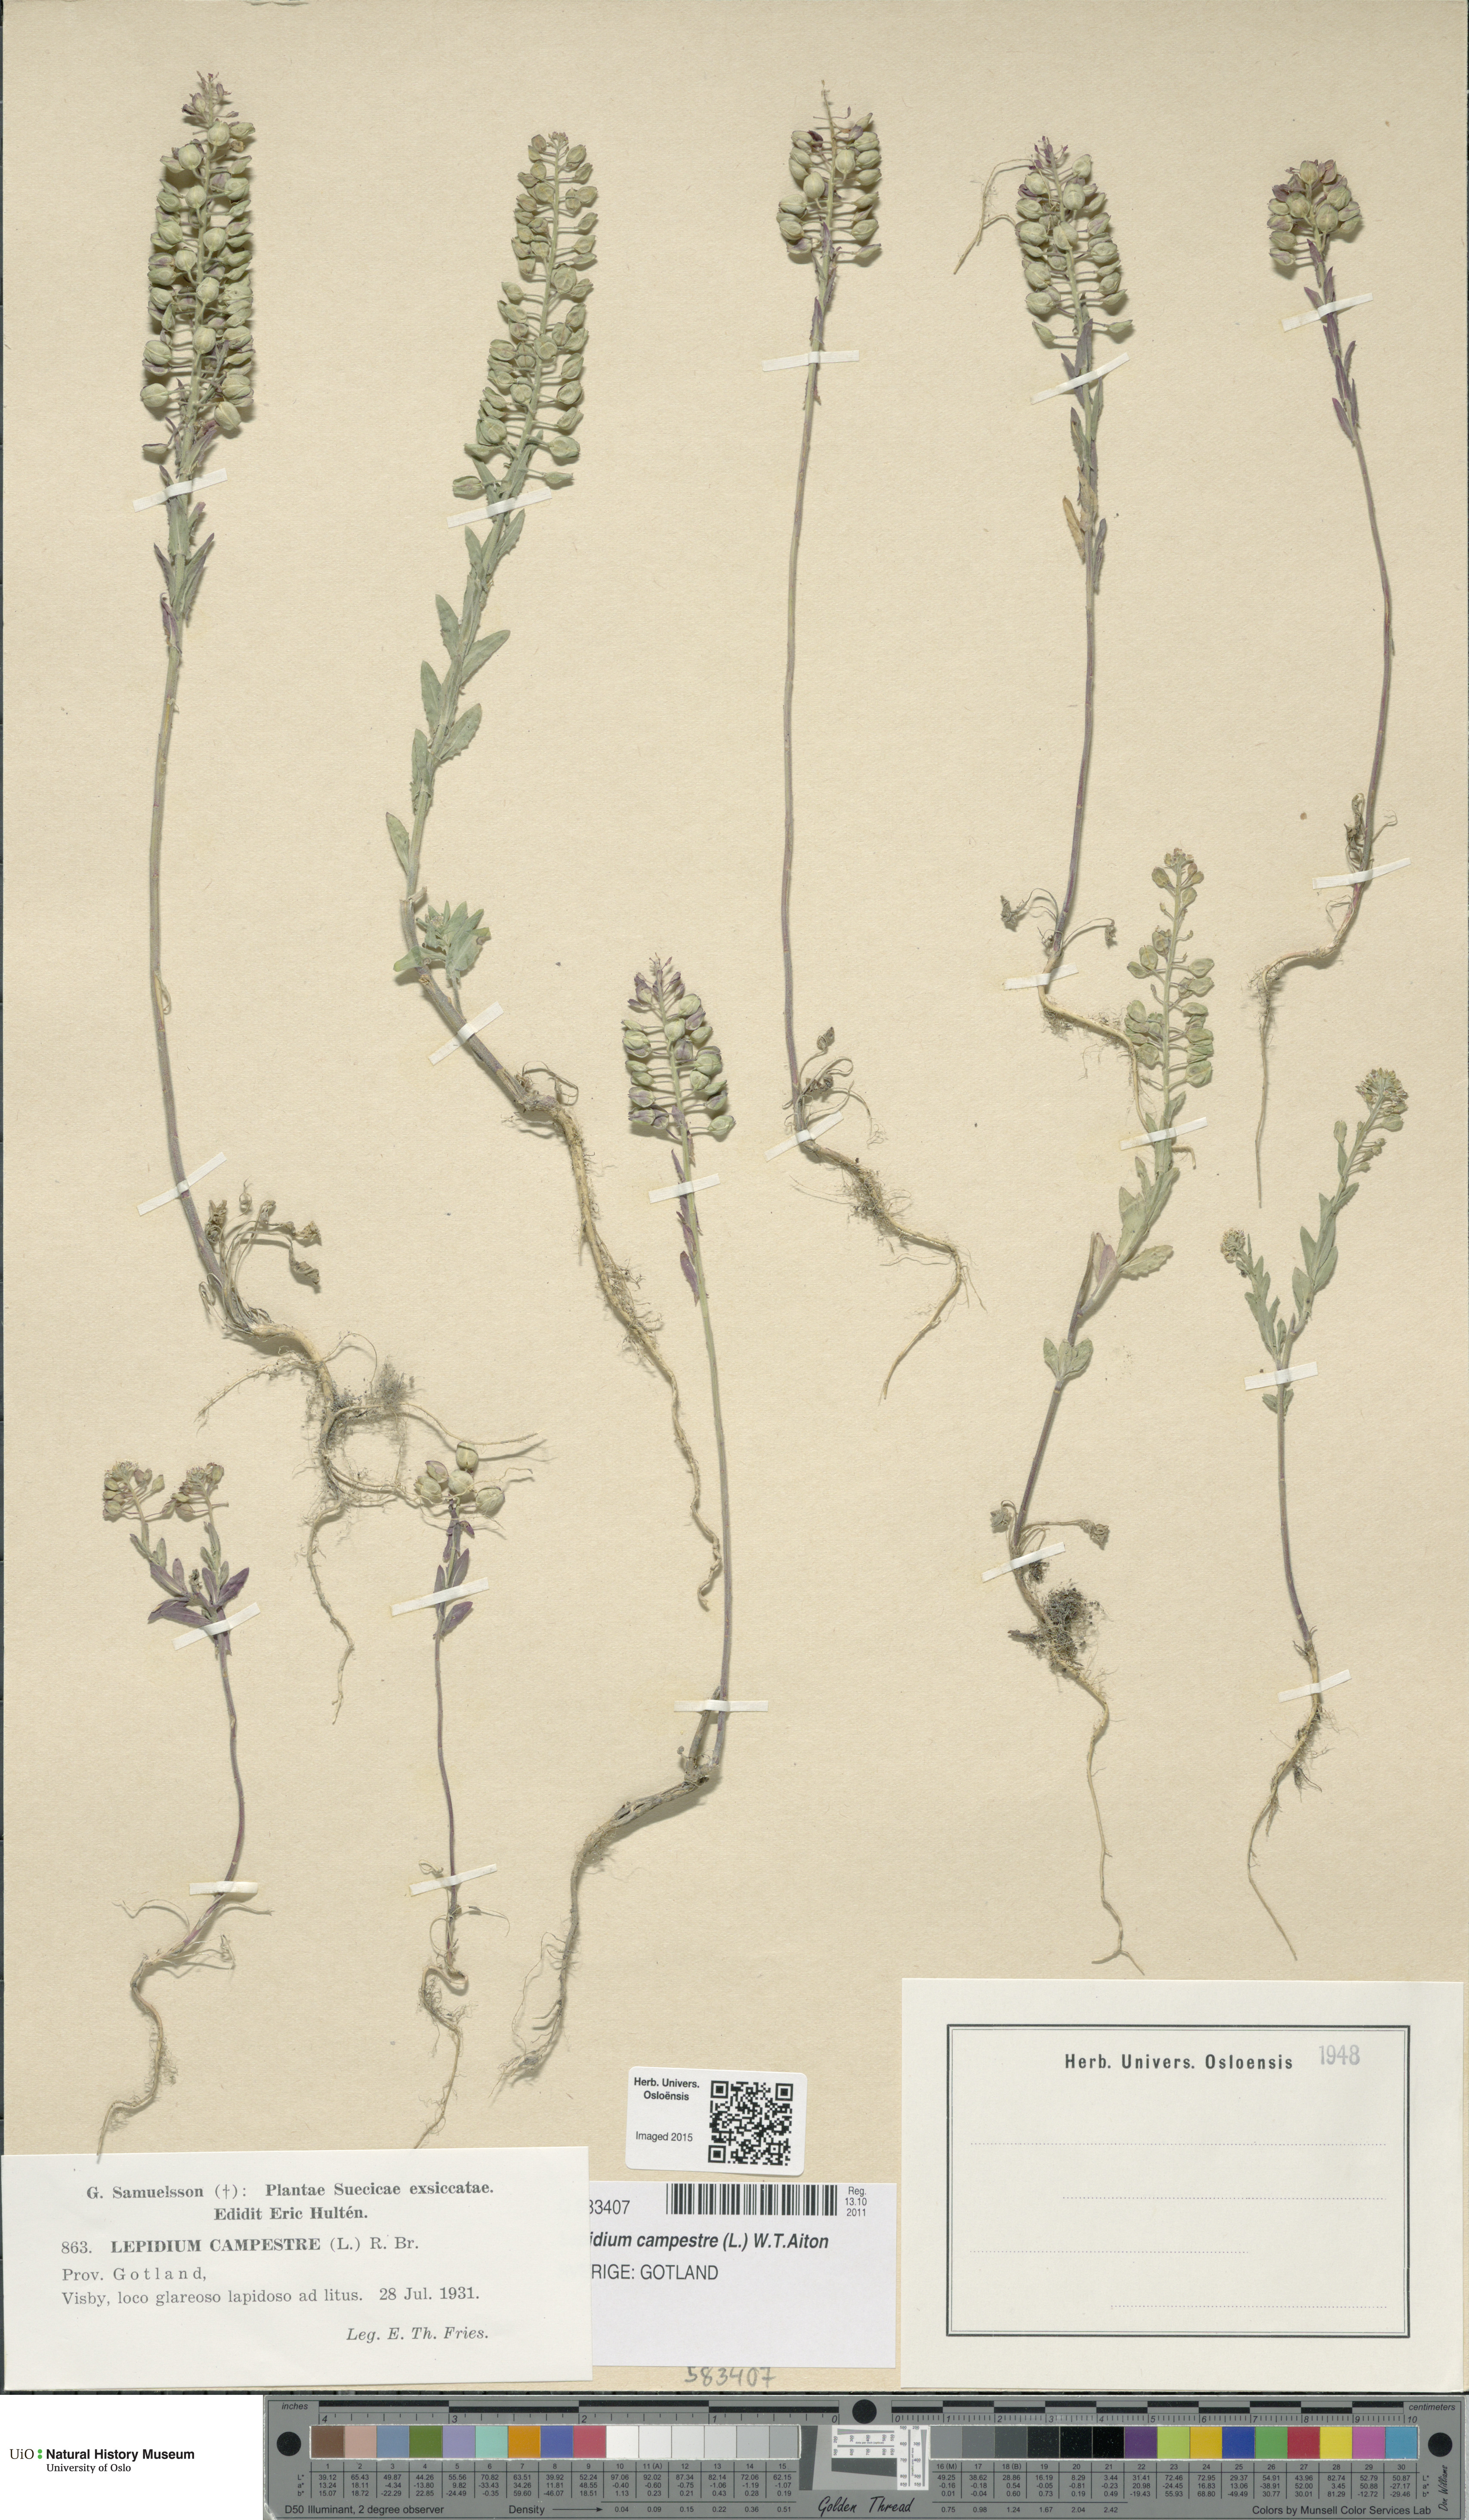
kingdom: Plantae
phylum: Tracheophyta
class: Magnoliopsida
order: Brassicales
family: Brassicaceae
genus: Lepidium
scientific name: Lepidium campestre
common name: Field pepperwort
